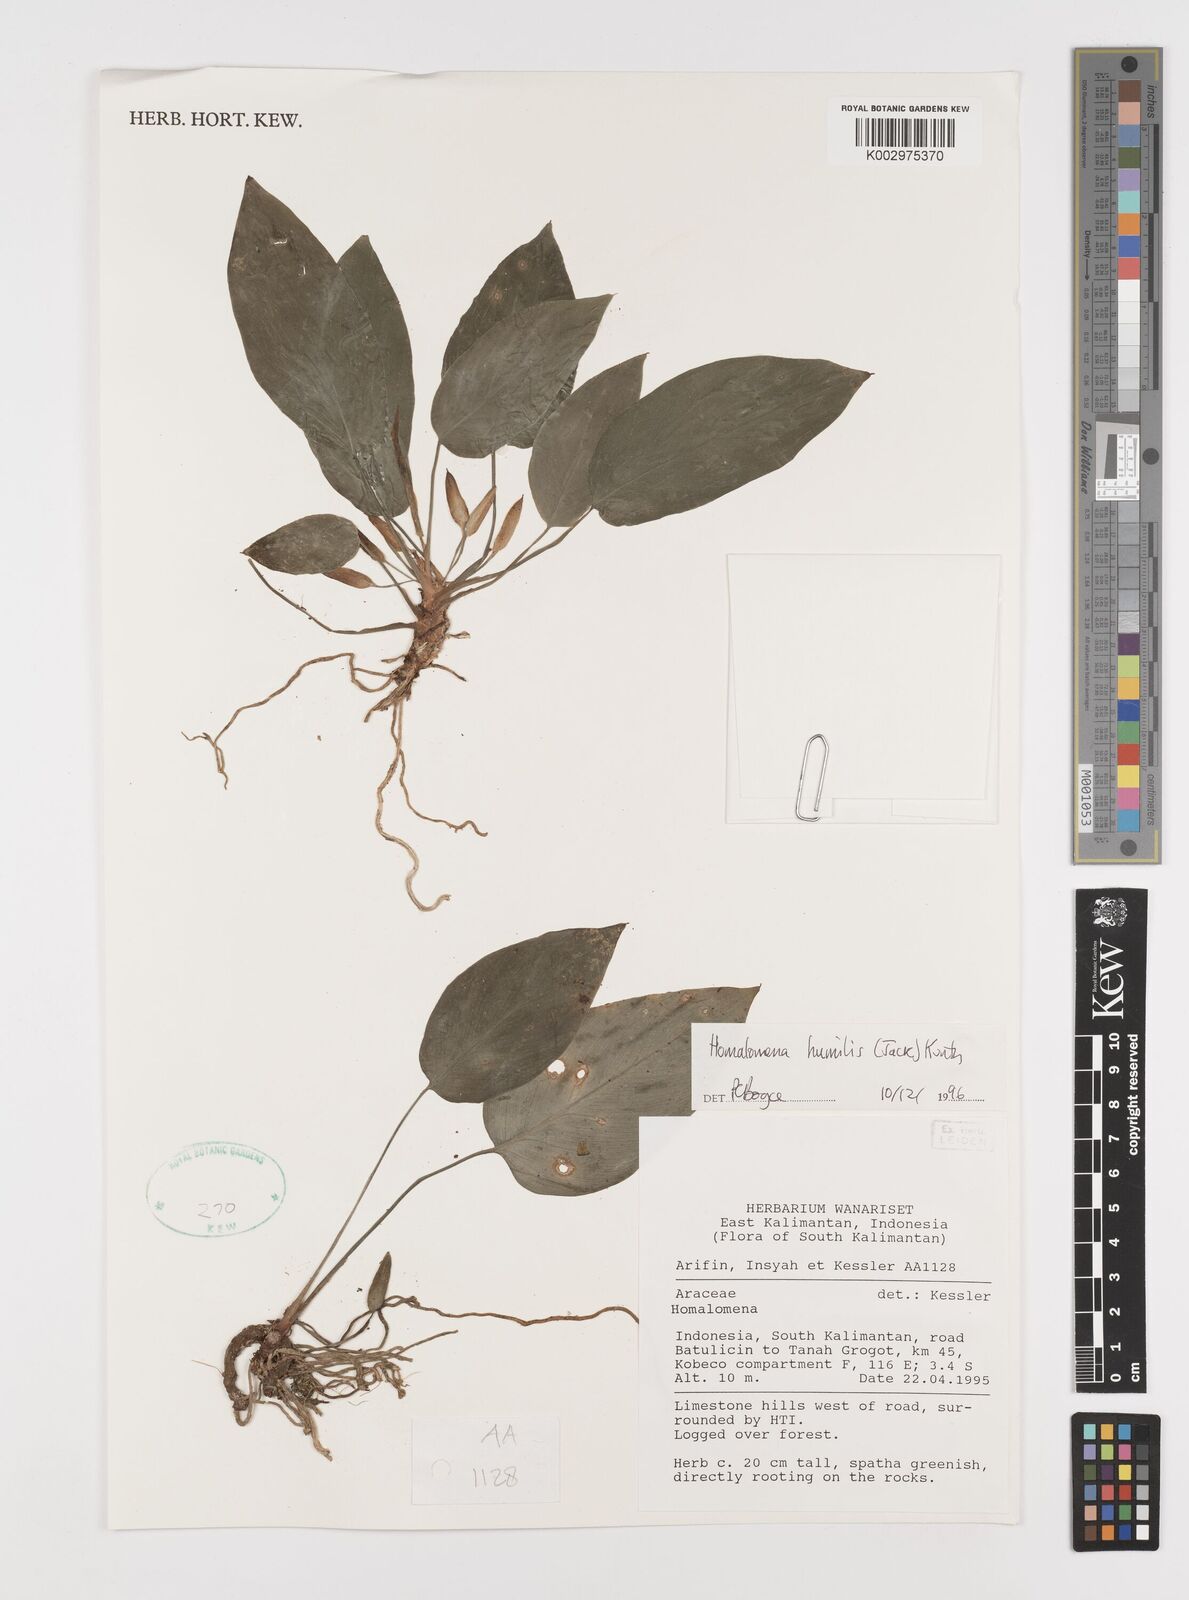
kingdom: Plantae
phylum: Tracheophyta
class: Liliopsida
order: Alismatales
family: Araceae
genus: Homalomena
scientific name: Homalomena humilis
